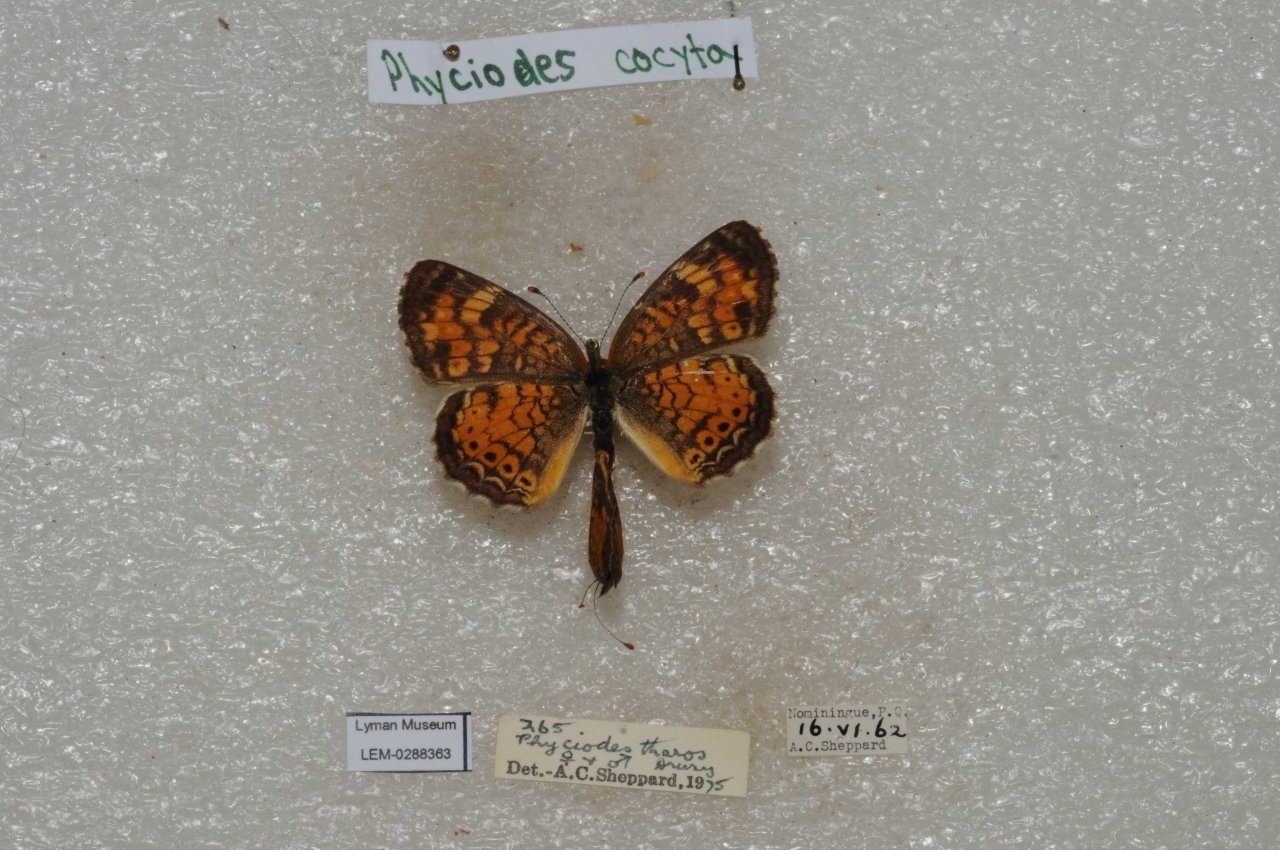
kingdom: Animalia
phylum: Arthropoda
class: Insecta
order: Lepidoptera
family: Nymphalidae
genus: Phyciodes
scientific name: Phyciodes tharos
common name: Northern Crescent
